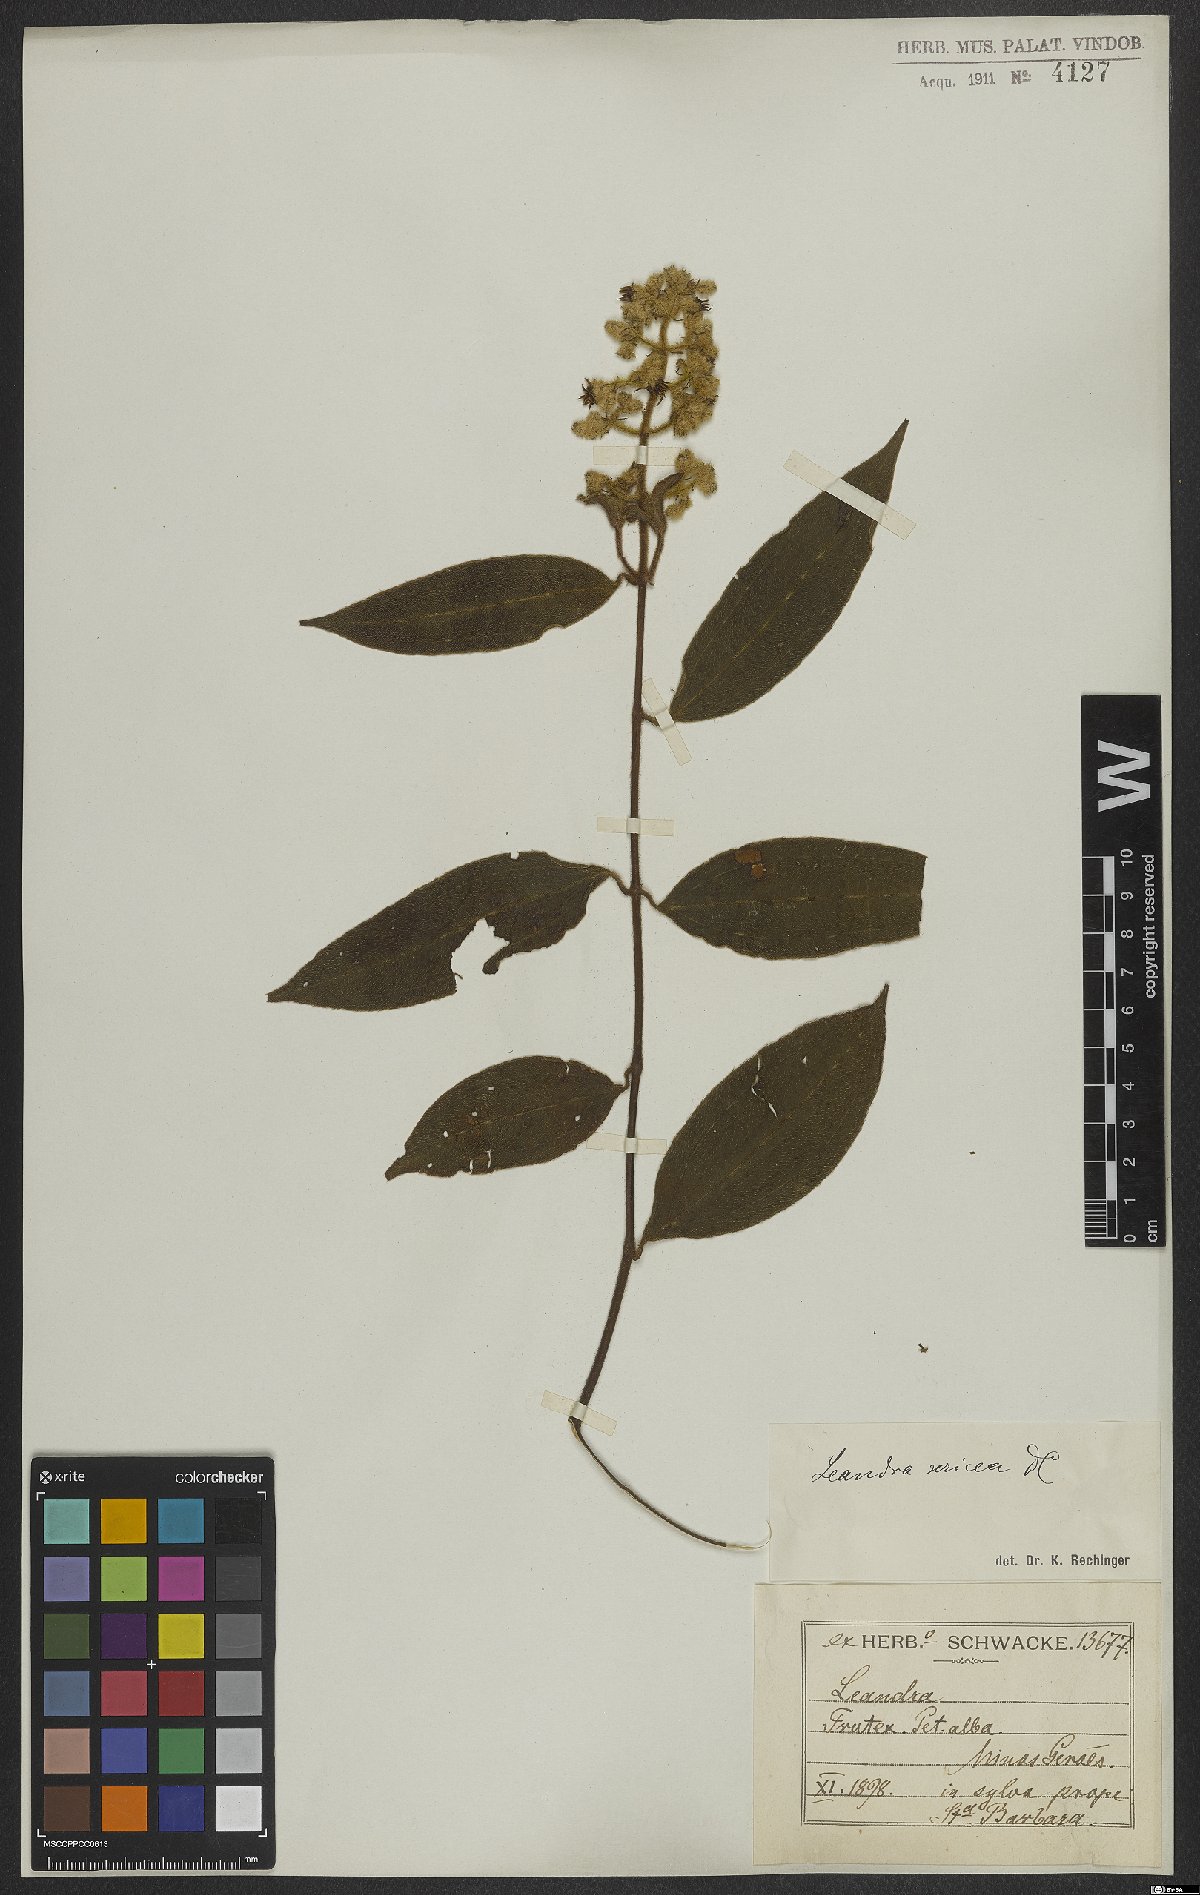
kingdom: Plantae
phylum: Tracheophyta
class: Magnoliopsida
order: Myrtales
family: Melastomataceae
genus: Miconia
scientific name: Miconia raddii
